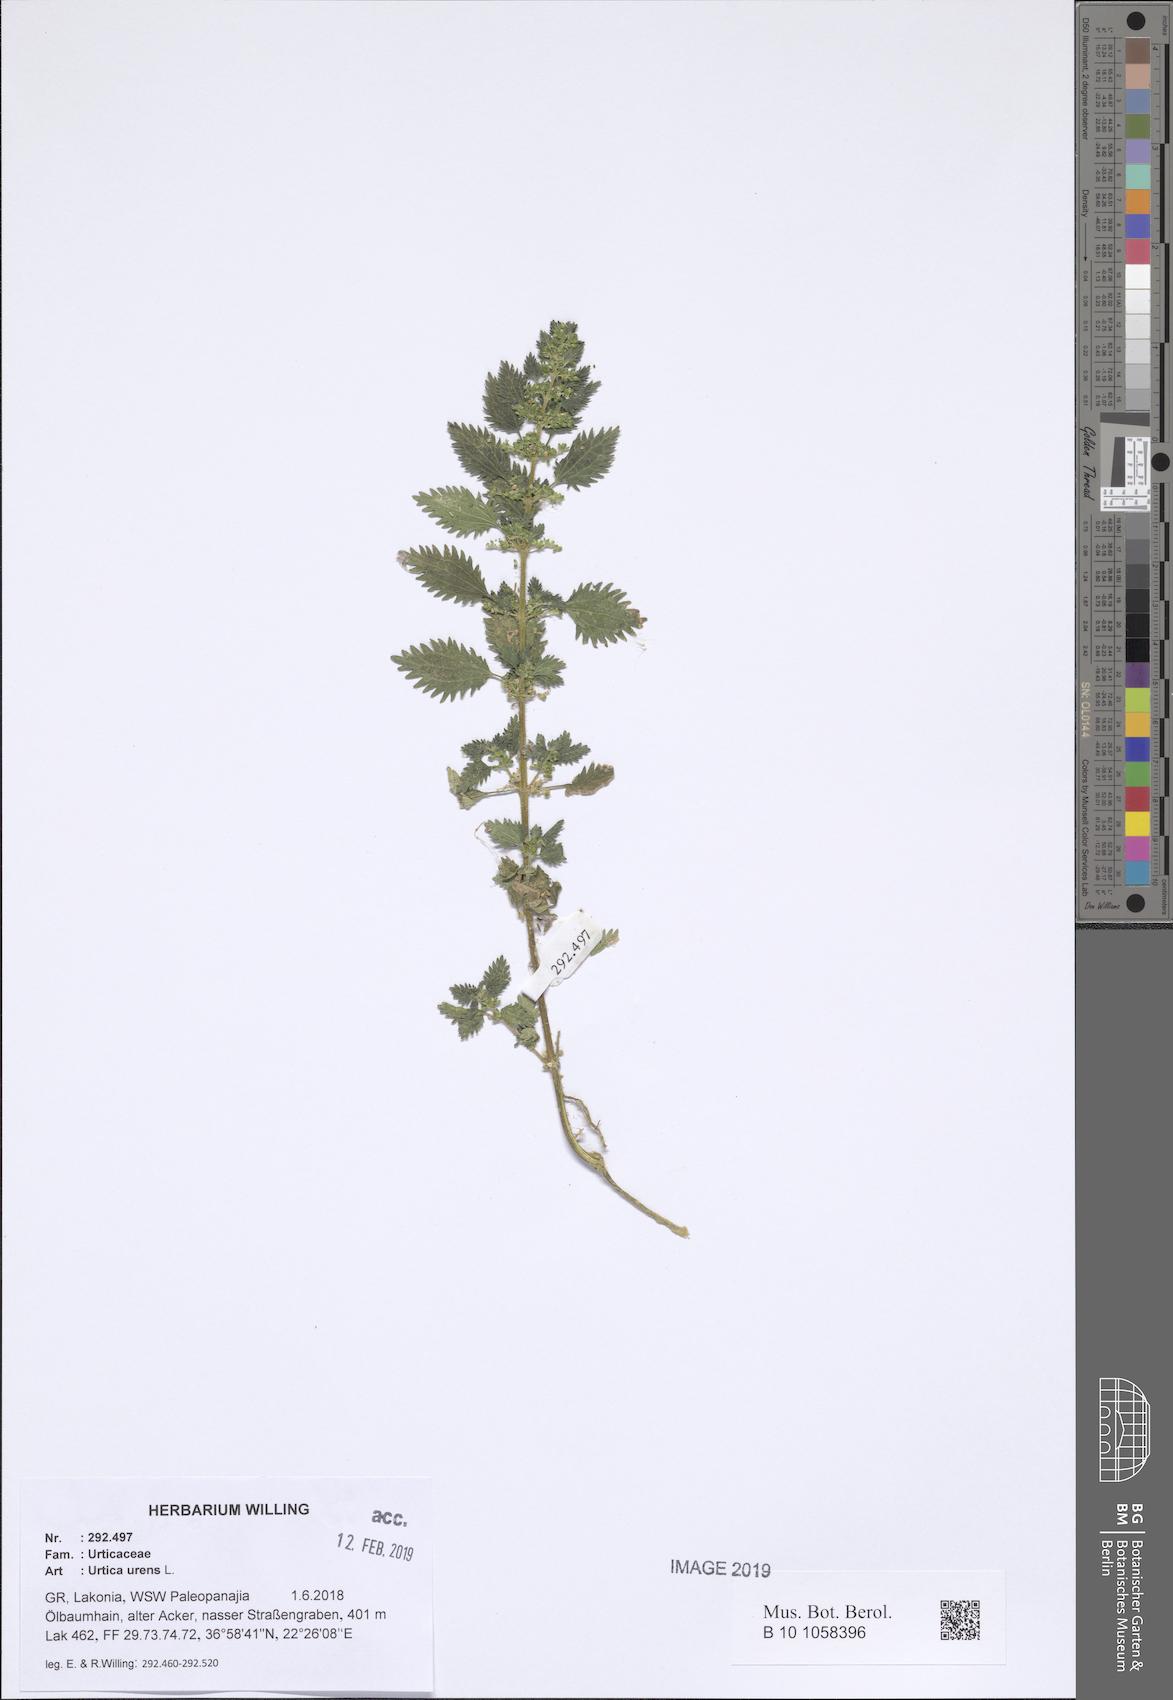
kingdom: Plantae
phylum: Tracheophyta
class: Magnoliopsida
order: Rosales
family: Urticaceae
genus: Urtica
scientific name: Urtica urens
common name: Dwarf nettle
